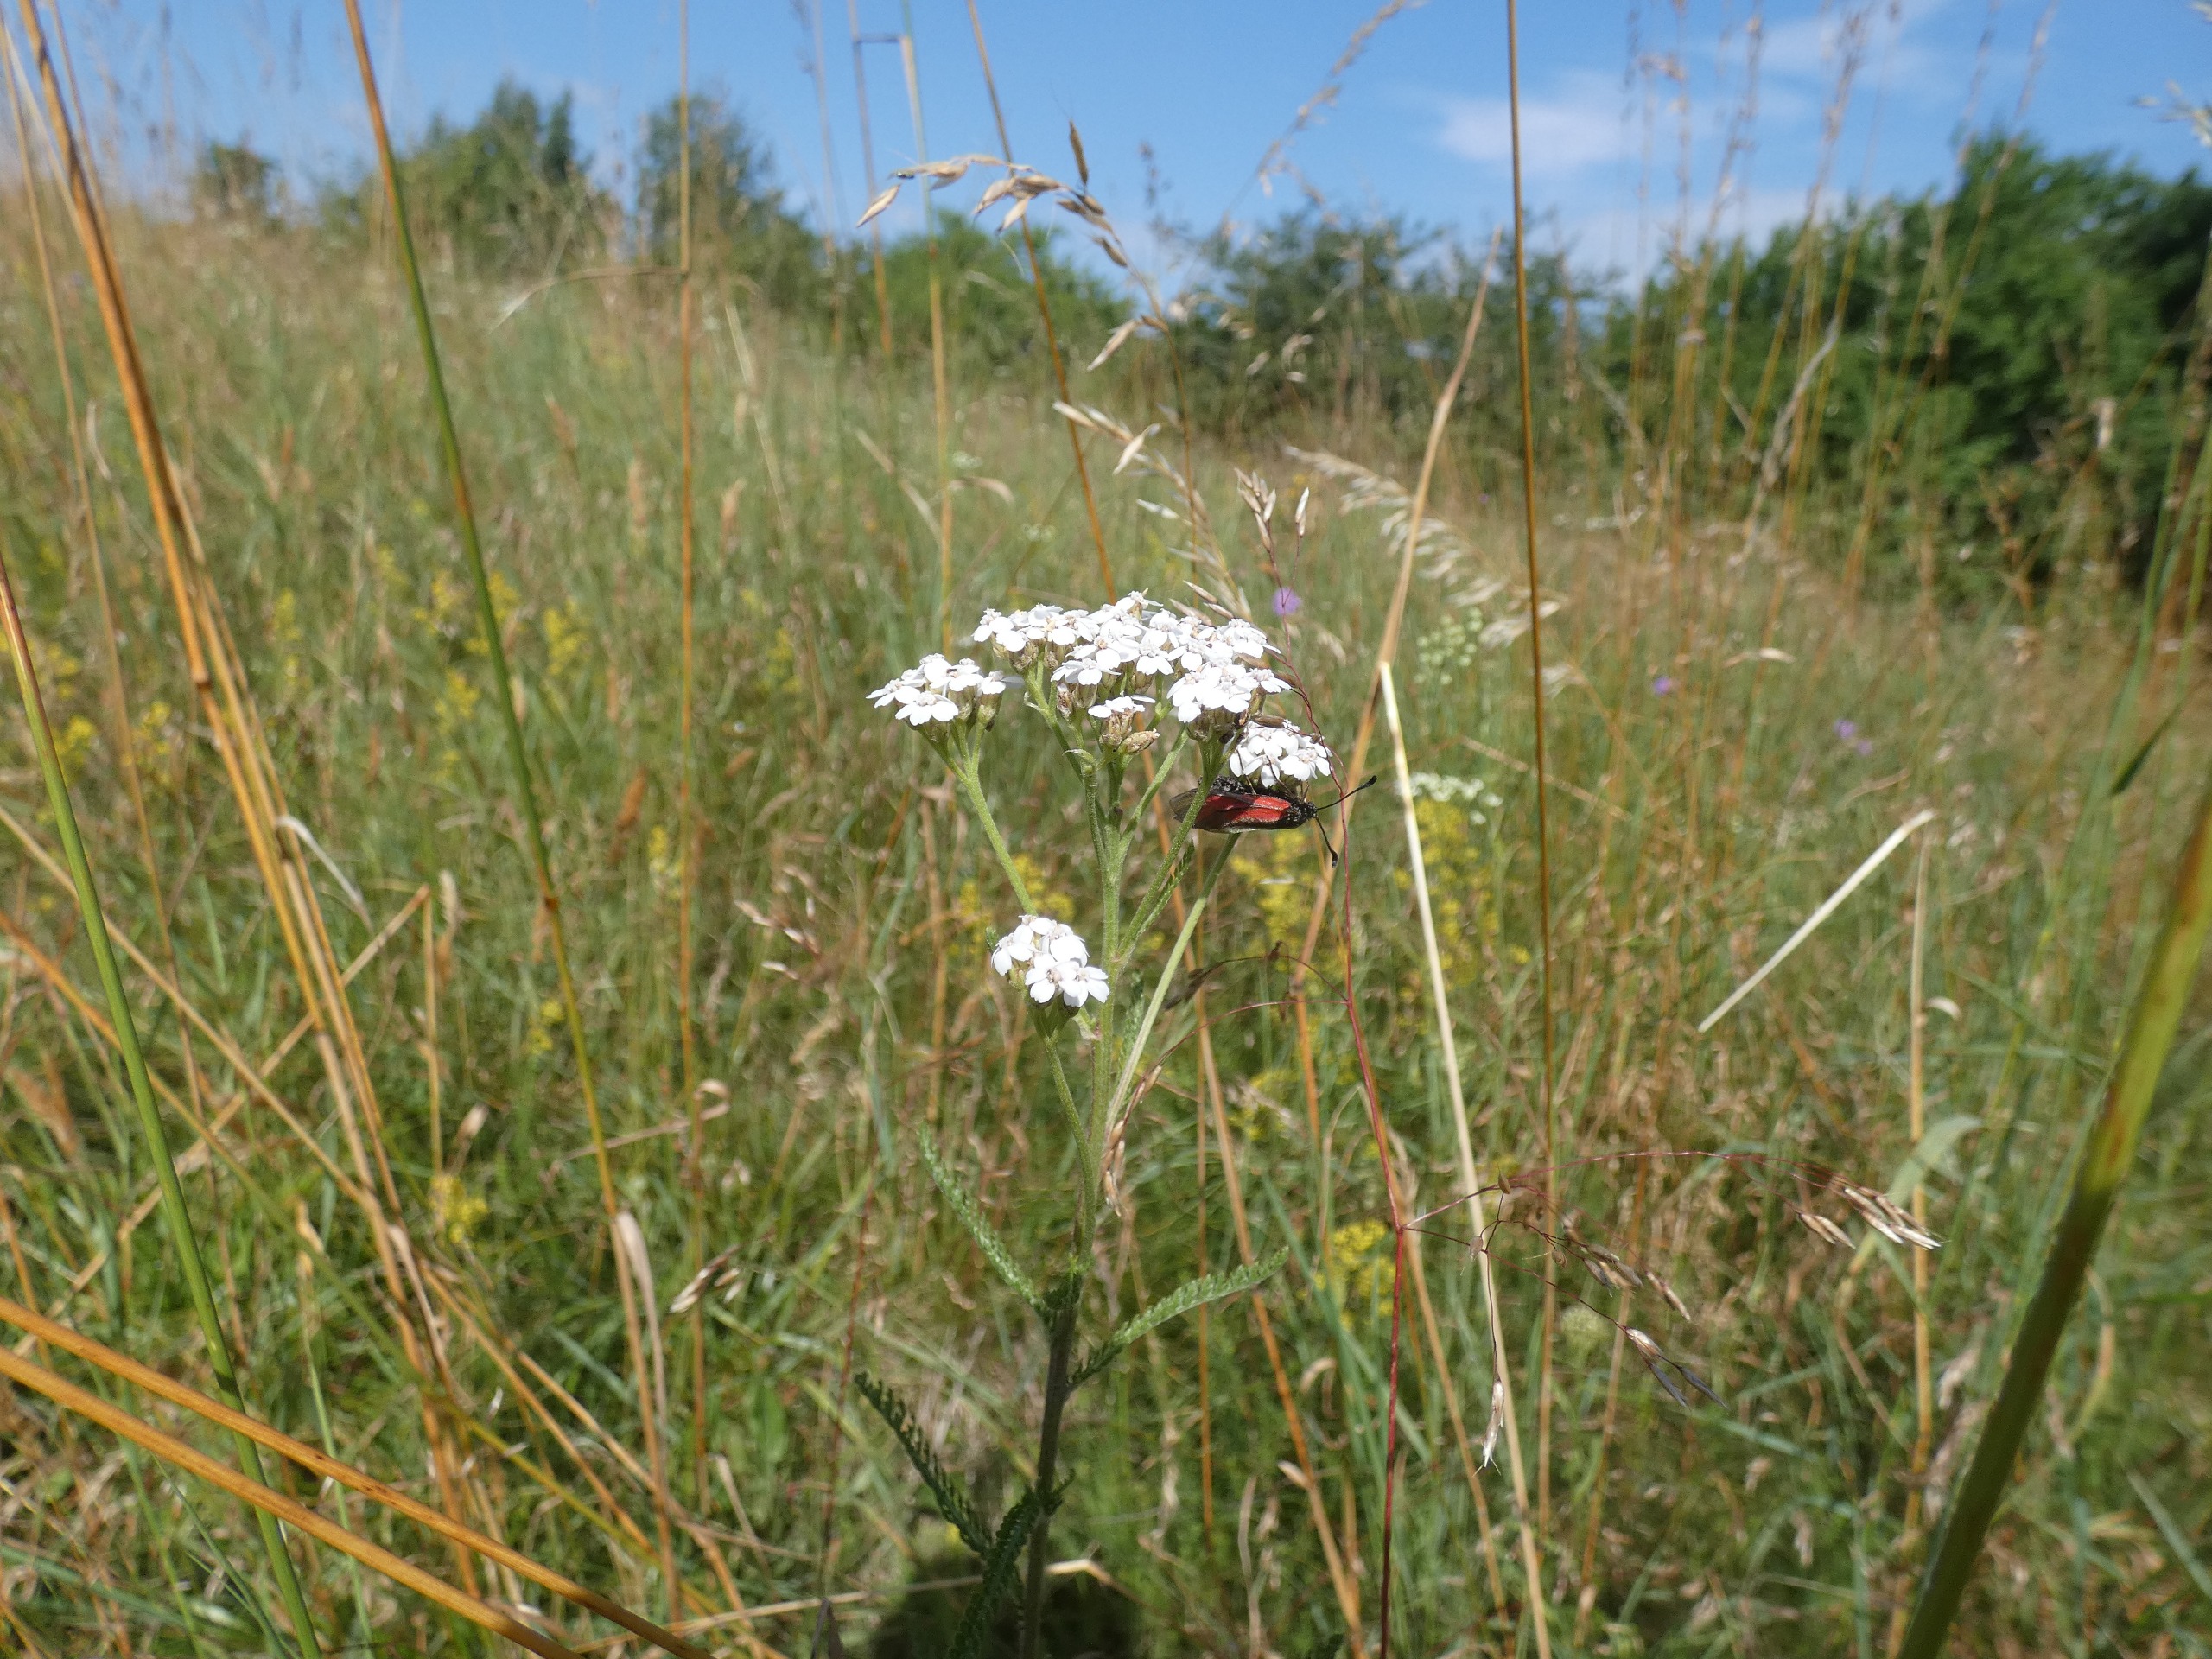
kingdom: Plantae
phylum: Tracheophyta
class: Magnoliopsida
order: Asterales
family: Asteraceae
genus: Achillea
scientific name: Achillea millefolium
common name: Almindelig røllike
